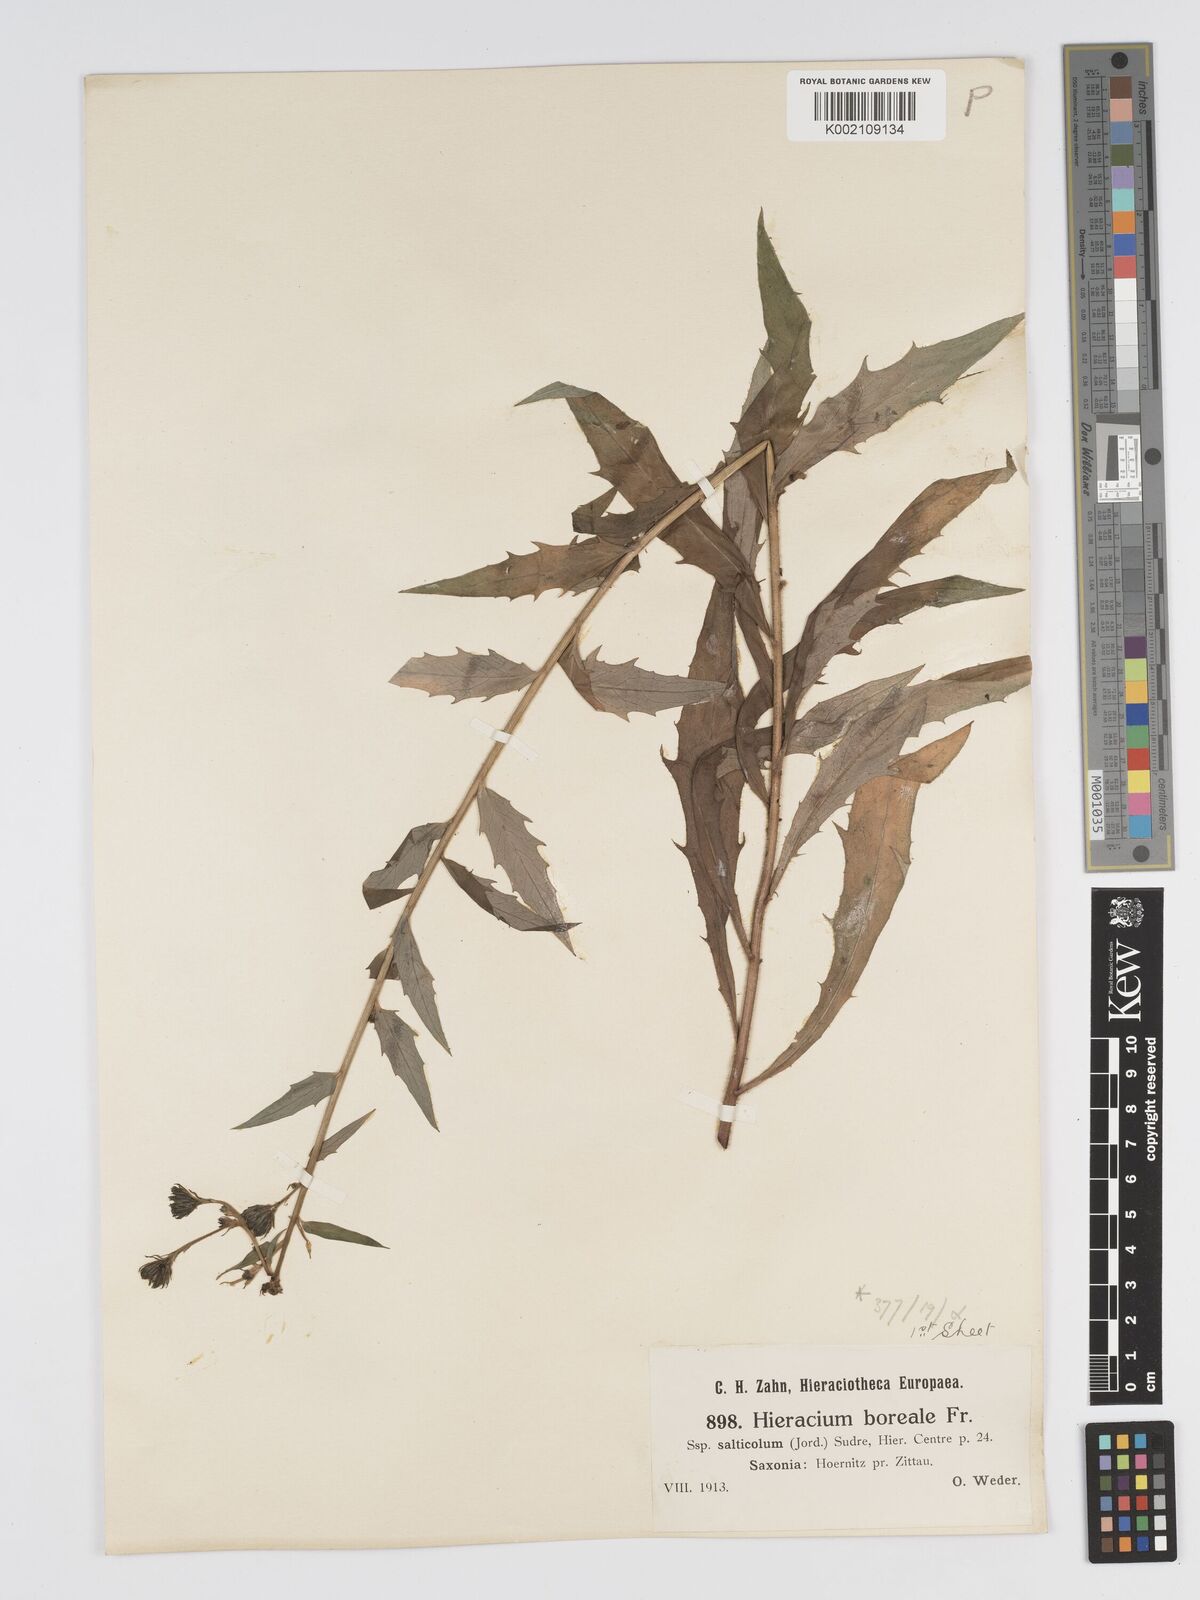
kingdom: Plantae
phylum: Tracheophyta
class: Magnoliopsida
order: Asterales
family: Asteraceae
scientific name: Asteraceae
